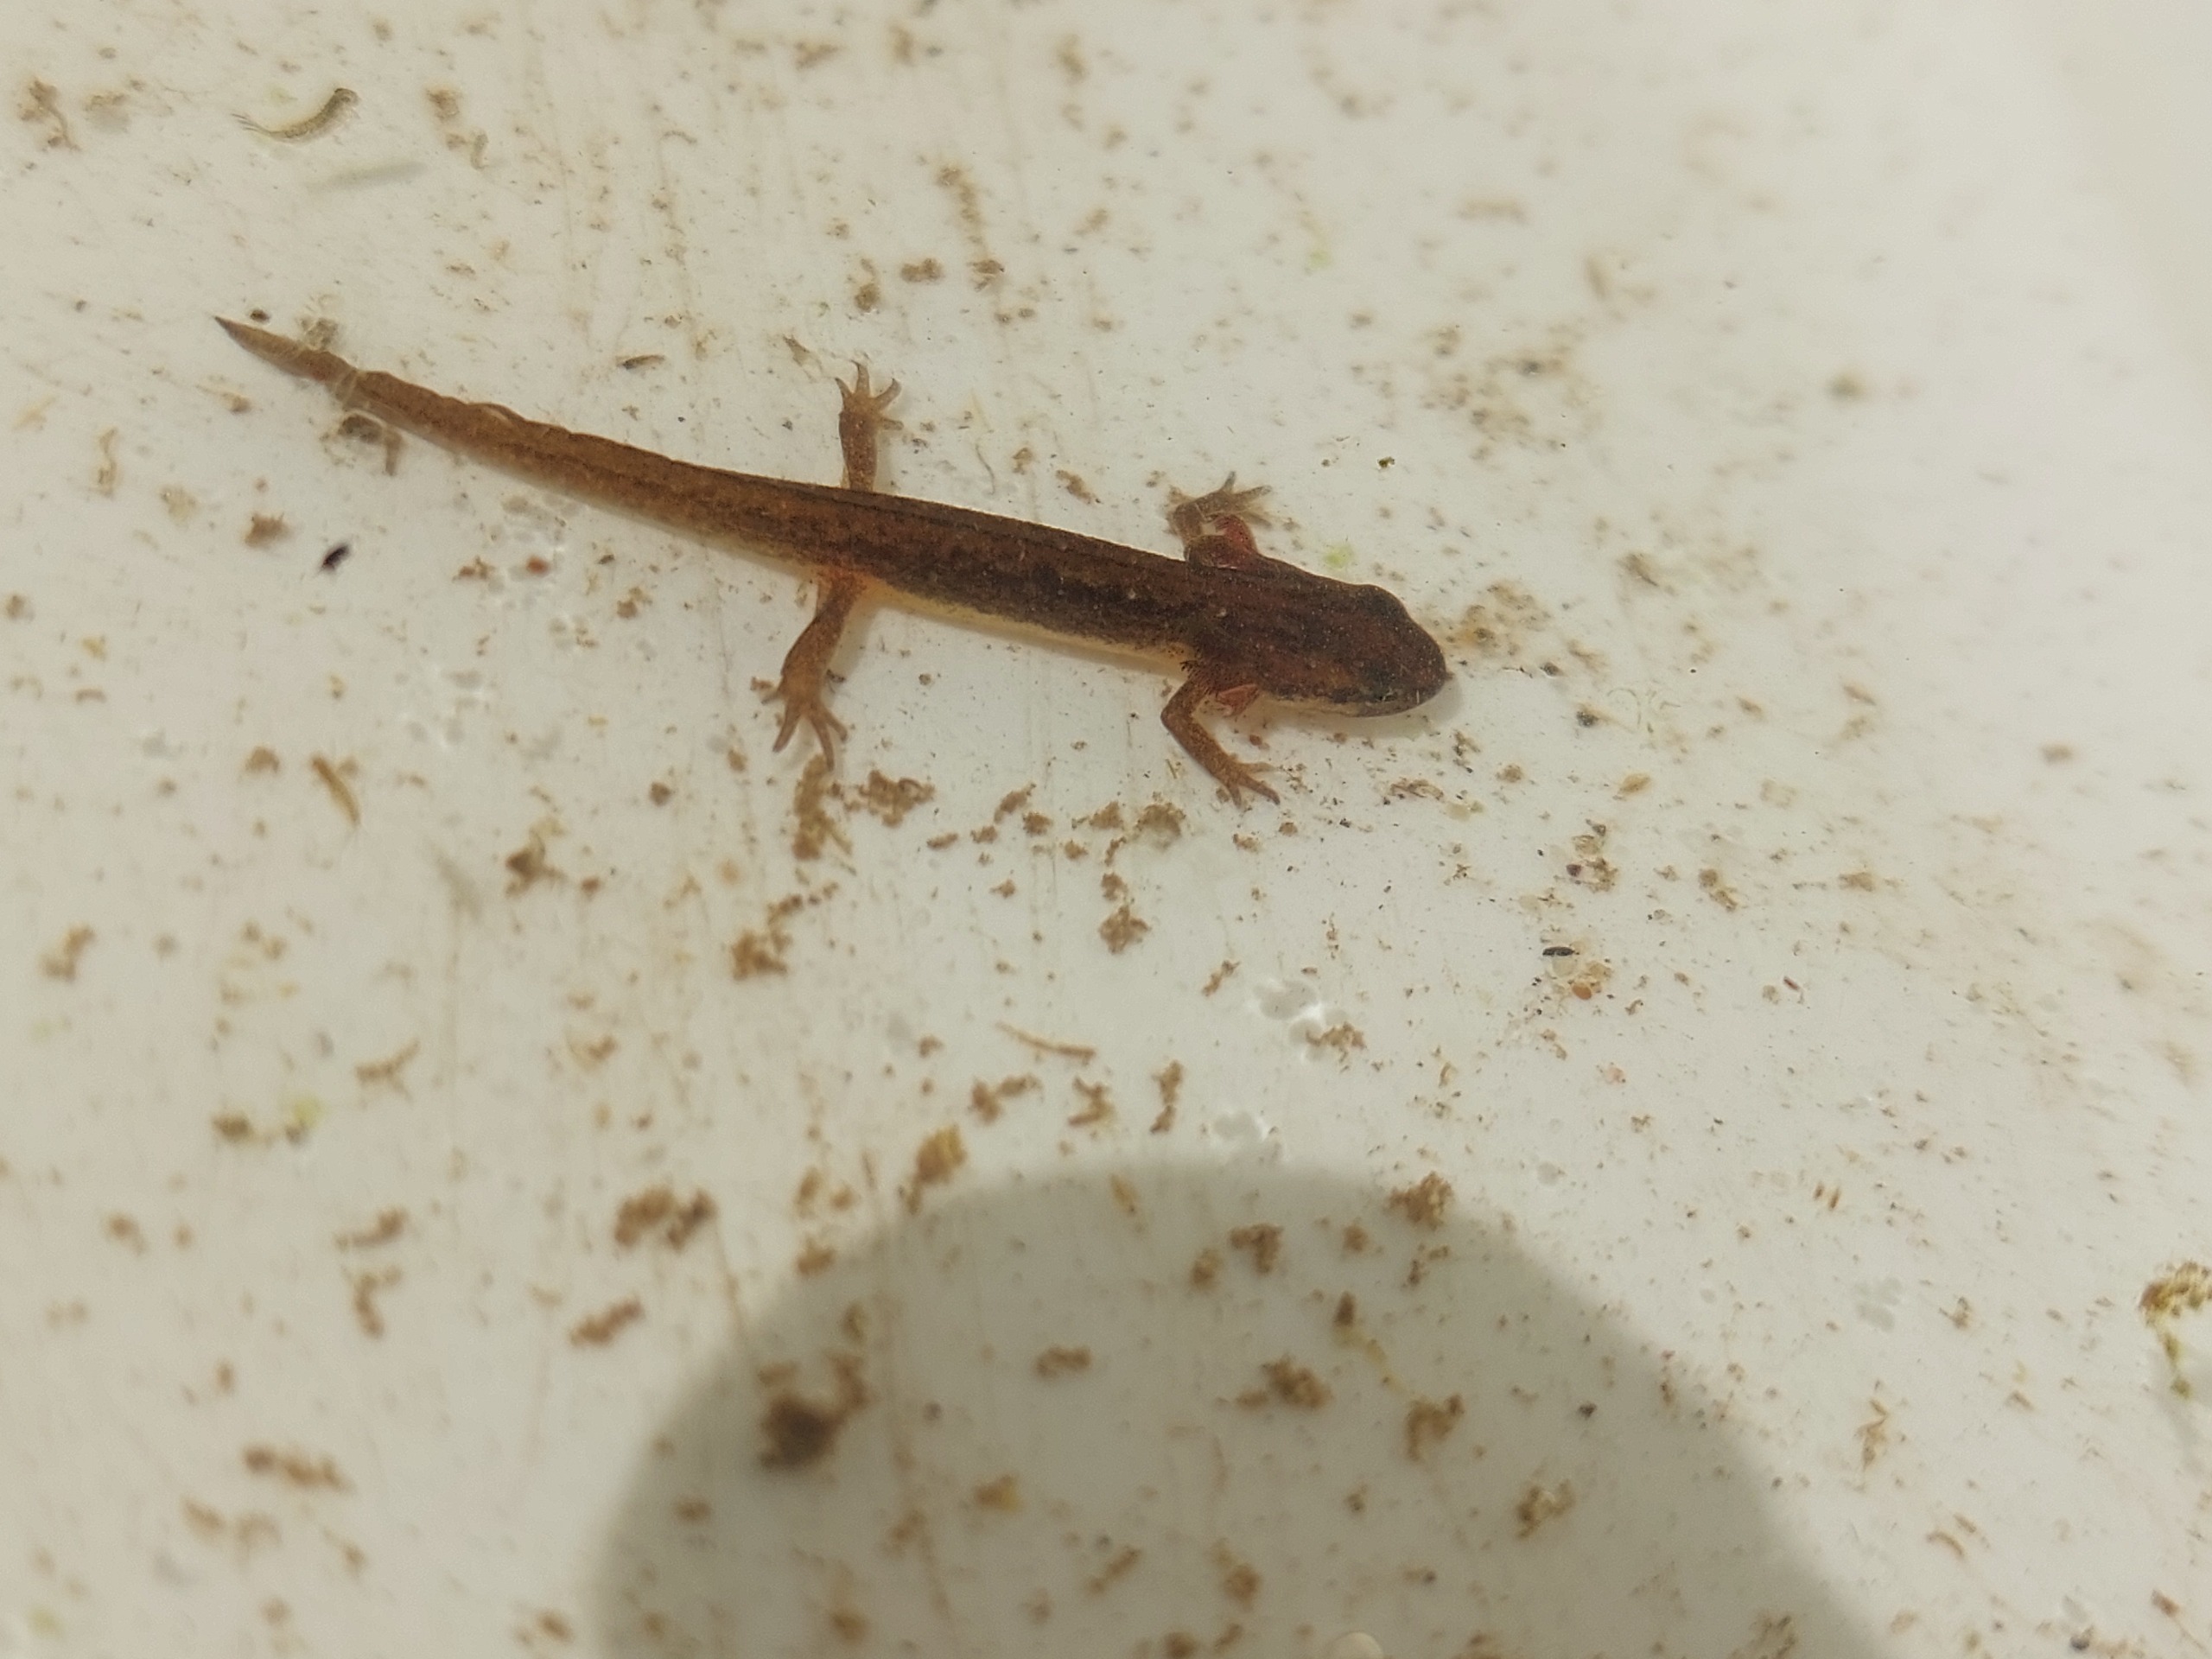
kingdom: Animalia
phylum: Chordata
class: Amphibia
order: Caudata
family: Salamandridae
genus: Lissotriton
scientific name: Lissotriton vulgaris
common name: Lille vandsalamander
